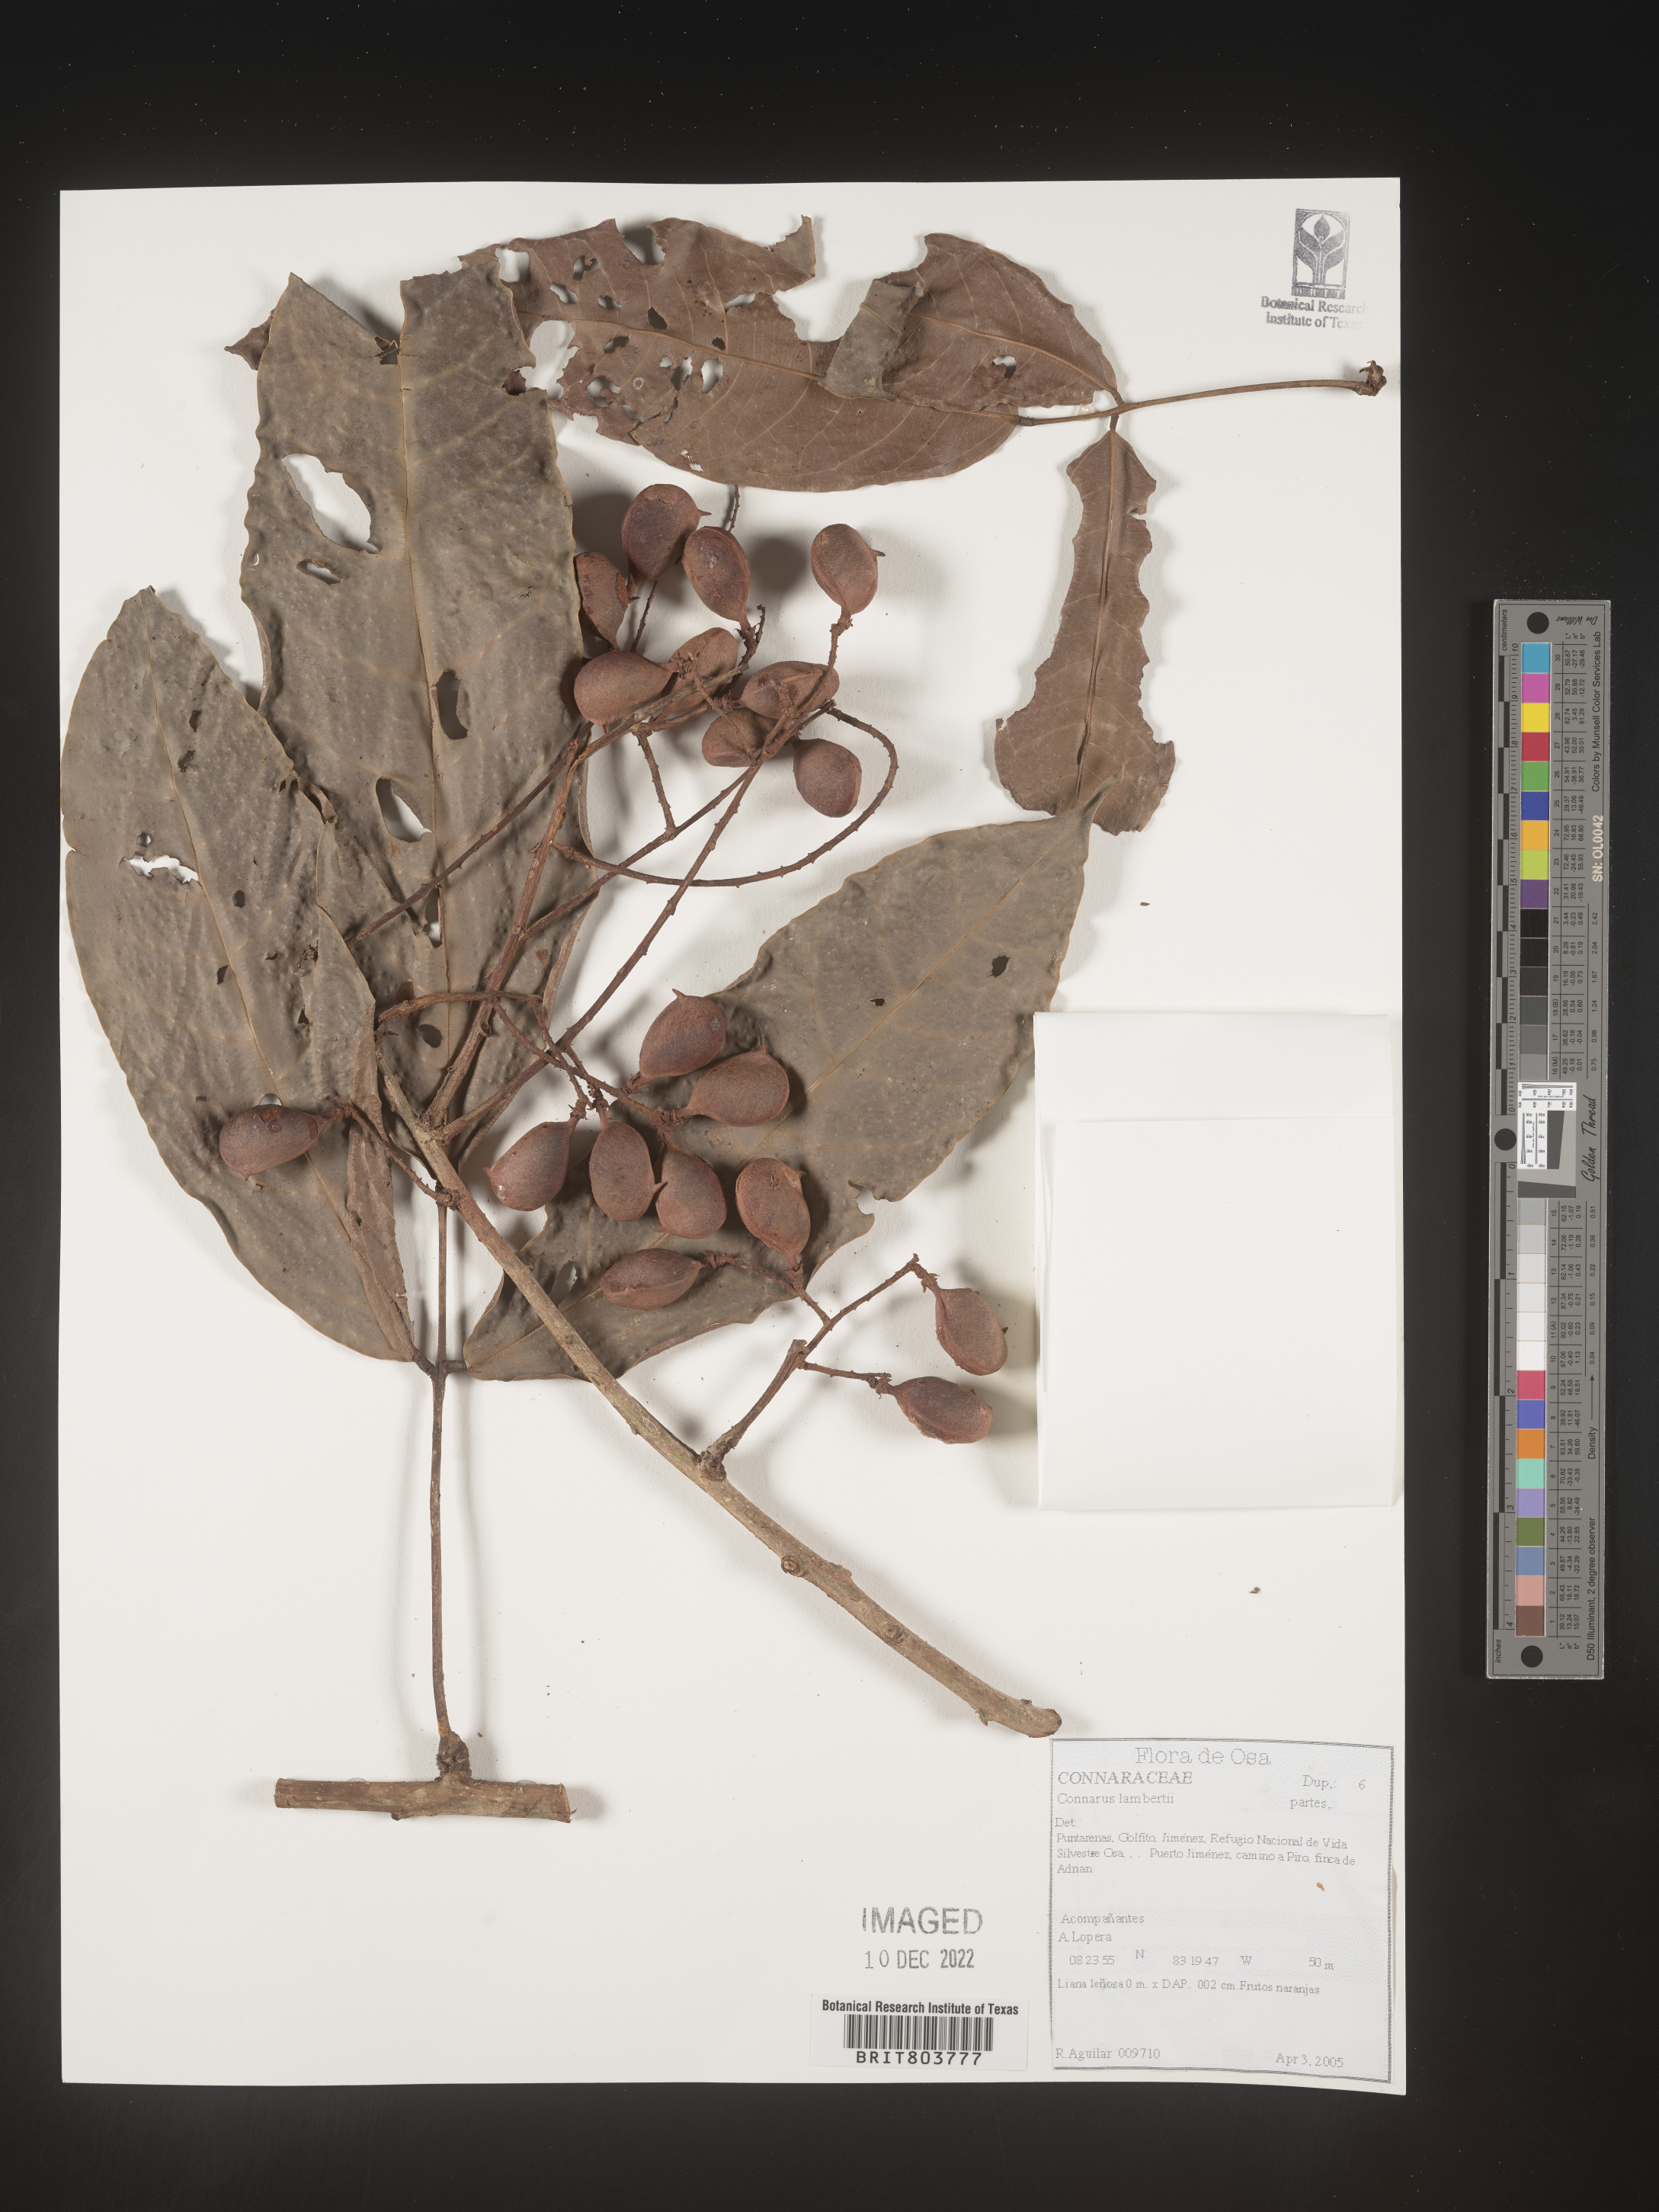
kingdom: Plantae
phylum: Tracheophyta
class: Magnoliopsida
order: Oxalidales
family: Connaraceae
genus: Connarus
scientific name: Connarus
